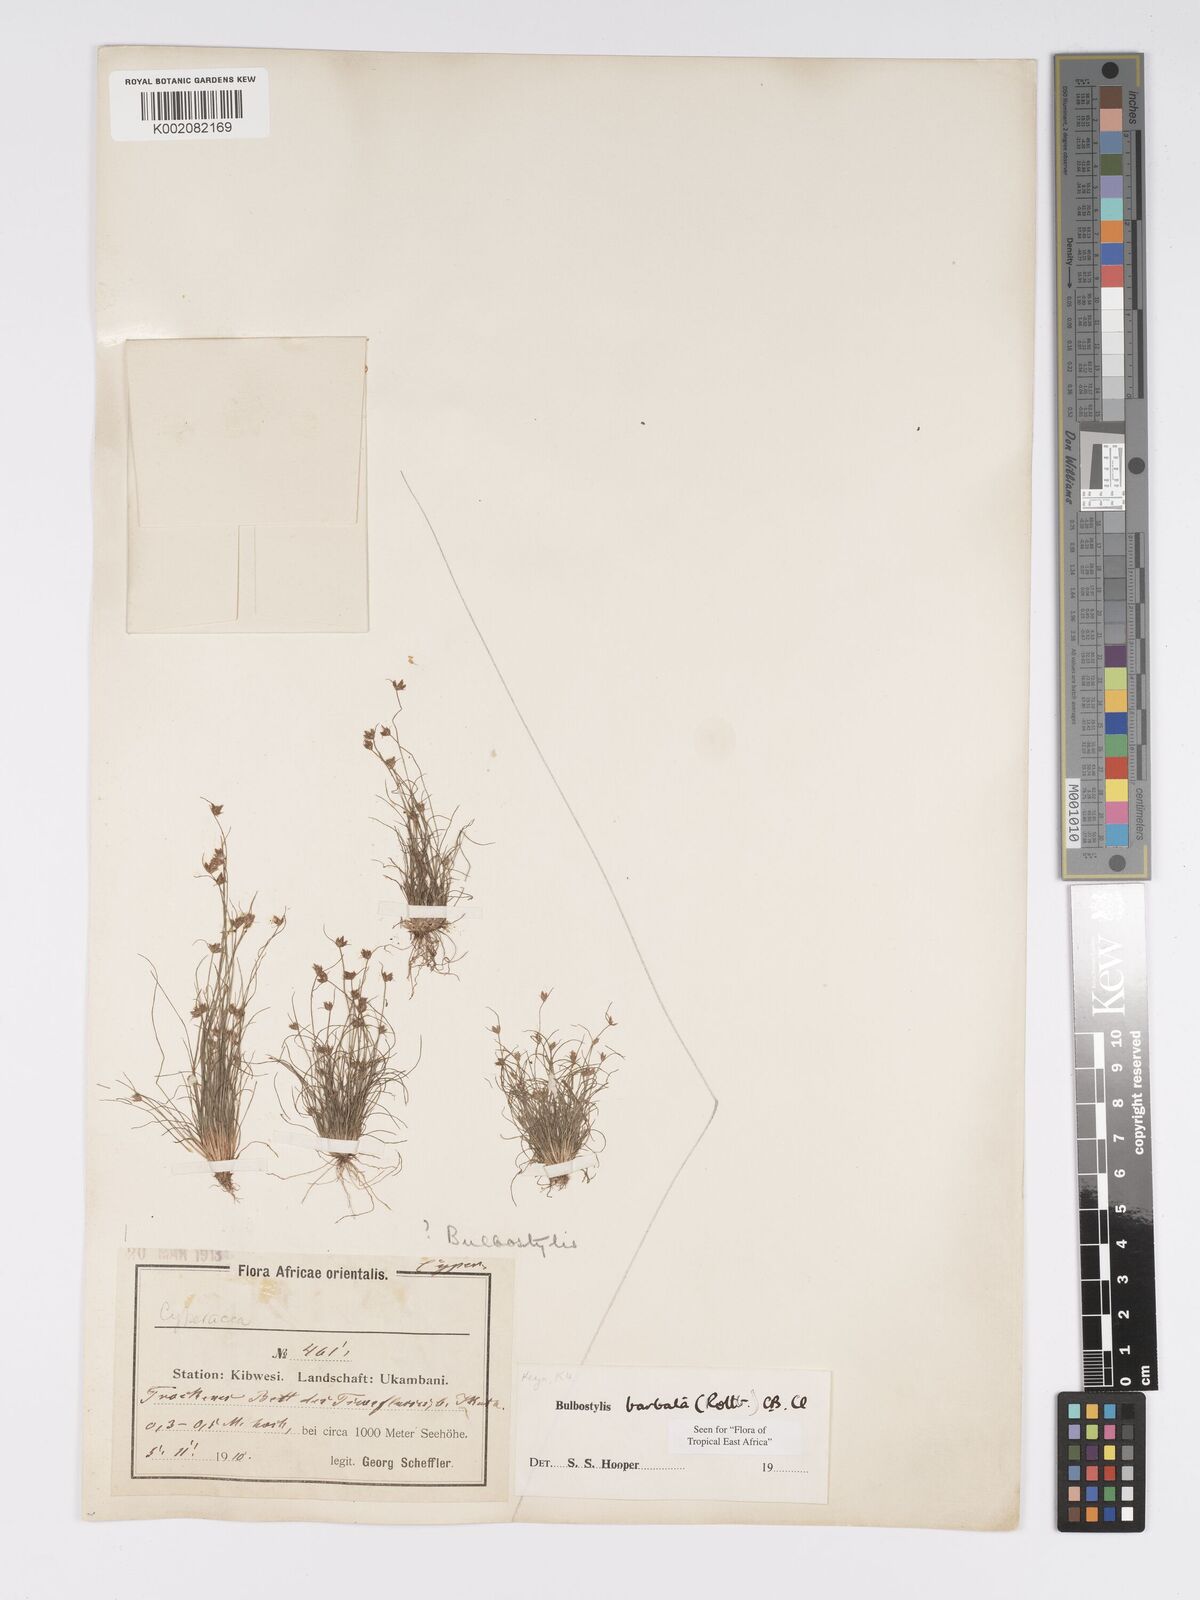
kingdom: Plantae
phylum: Tracheophyta
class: Liliopsida
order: Poales
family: Cyperaceae
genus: Bulbostylis
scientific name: Bulbostylis barbata
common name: Watergrass
